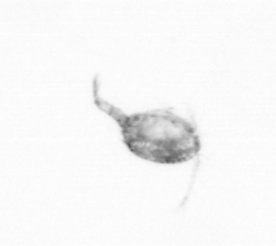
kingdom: Animalia
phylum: Arthropoda
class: Copepoda
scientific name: Copepoda
